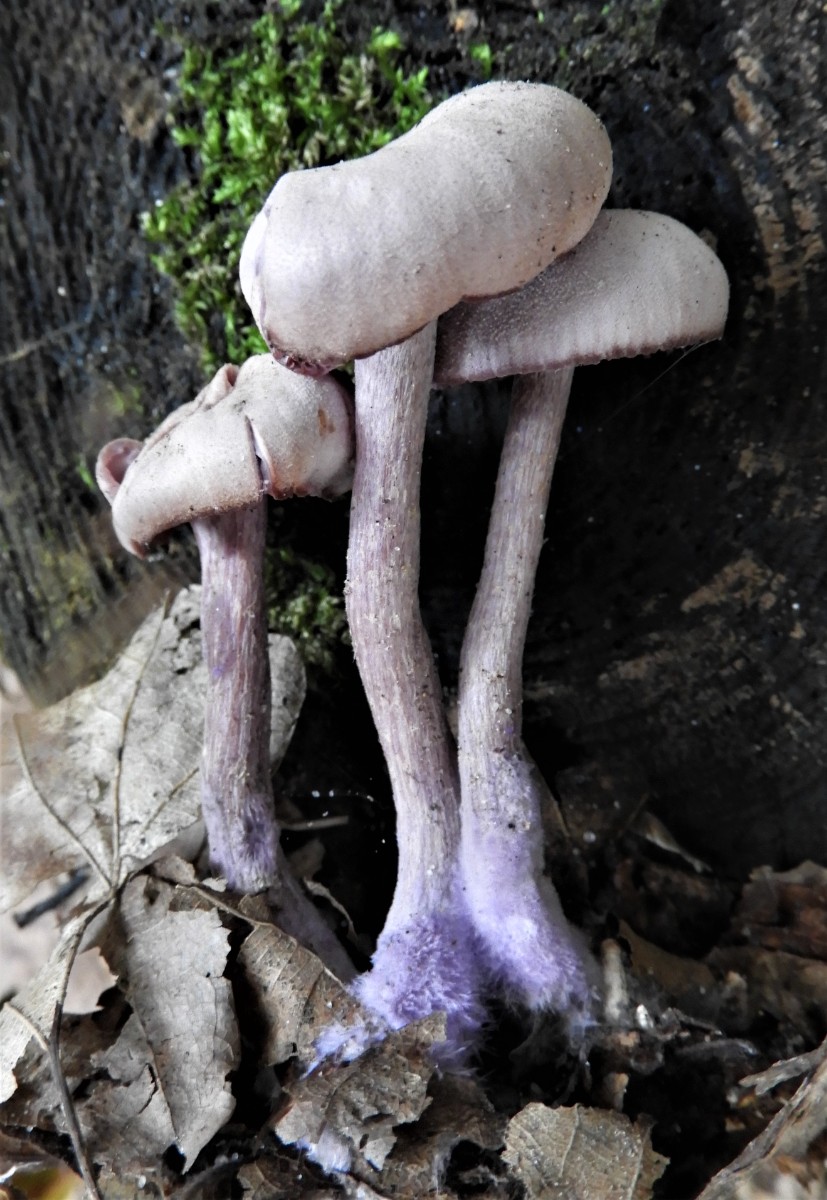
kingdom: Fungi
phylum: Basidiomycota
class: Agaricomycetes
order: Agaricales
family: Hydnangiaceae
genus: Laccaria
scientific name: Laccaria amethystina
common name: violet ametysthat
